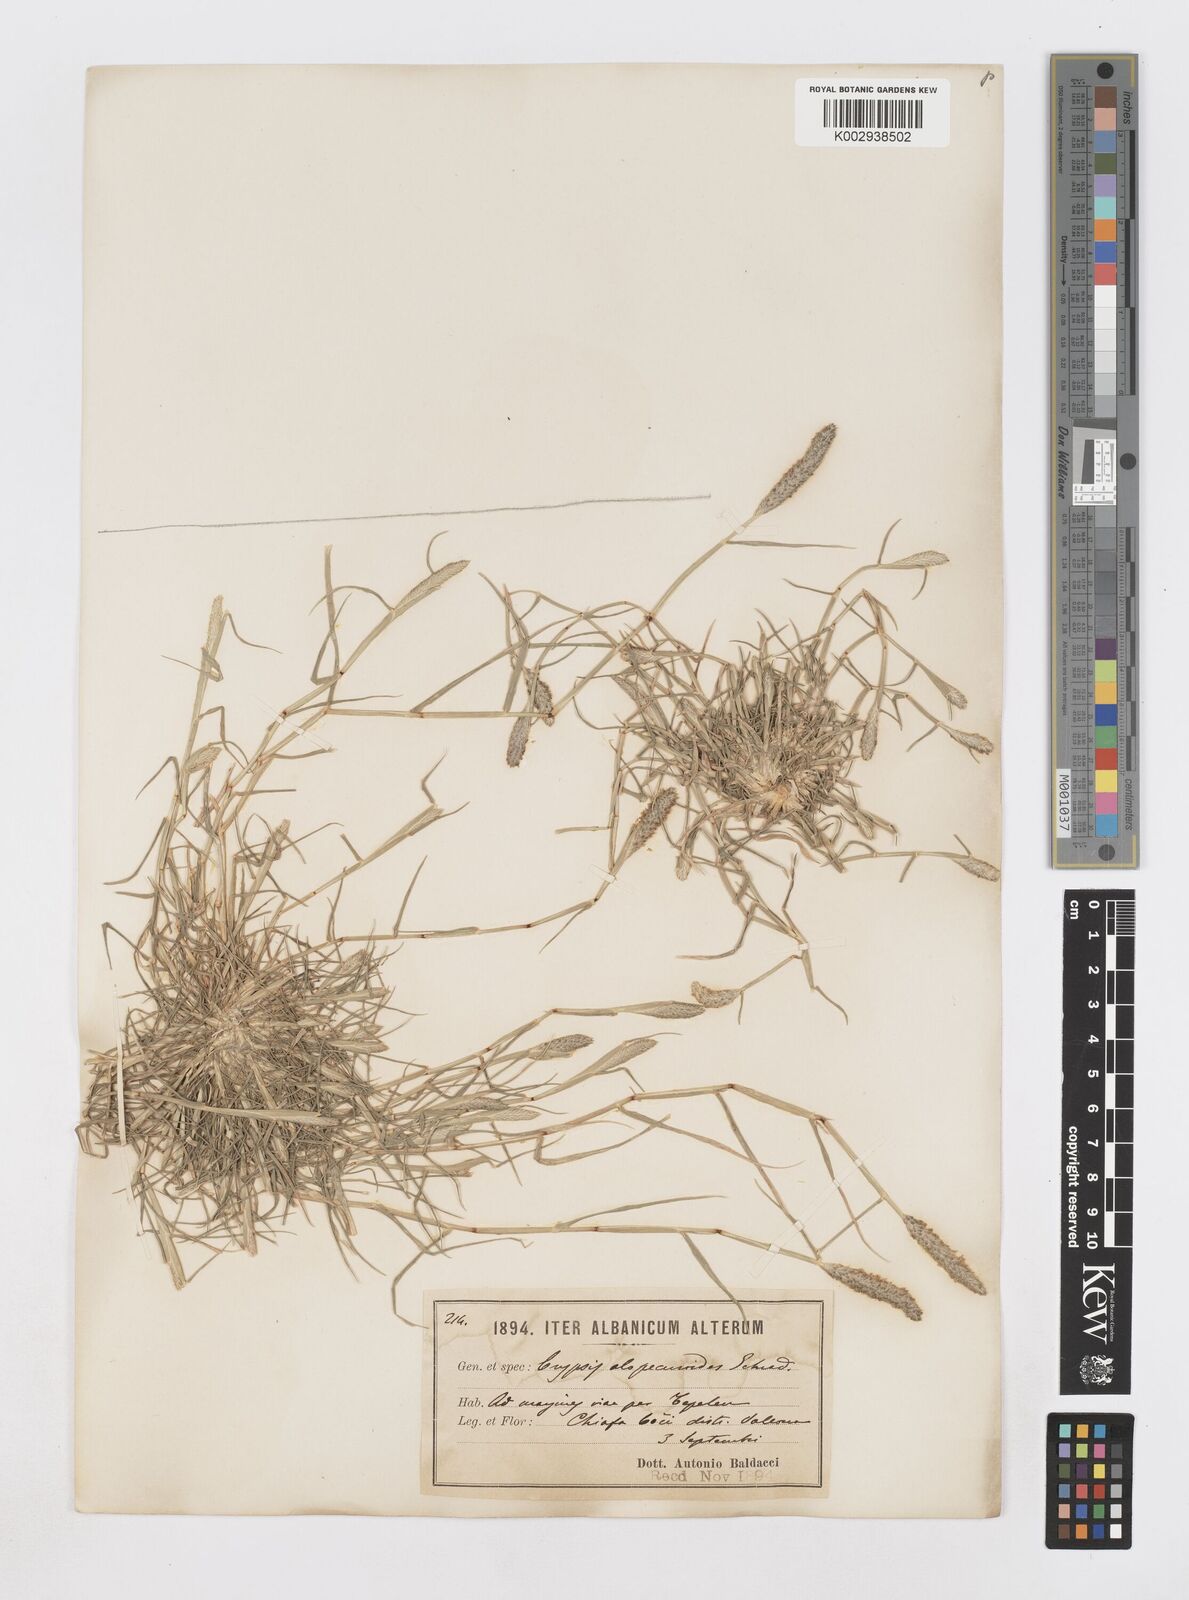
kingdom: Plantae
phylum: Tracheophyta
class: Liliopsida
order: Poales
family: Poaceae
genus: Sporobolus
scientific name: Sporobolus alopecuroides
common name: Foxtail pricklegrass
